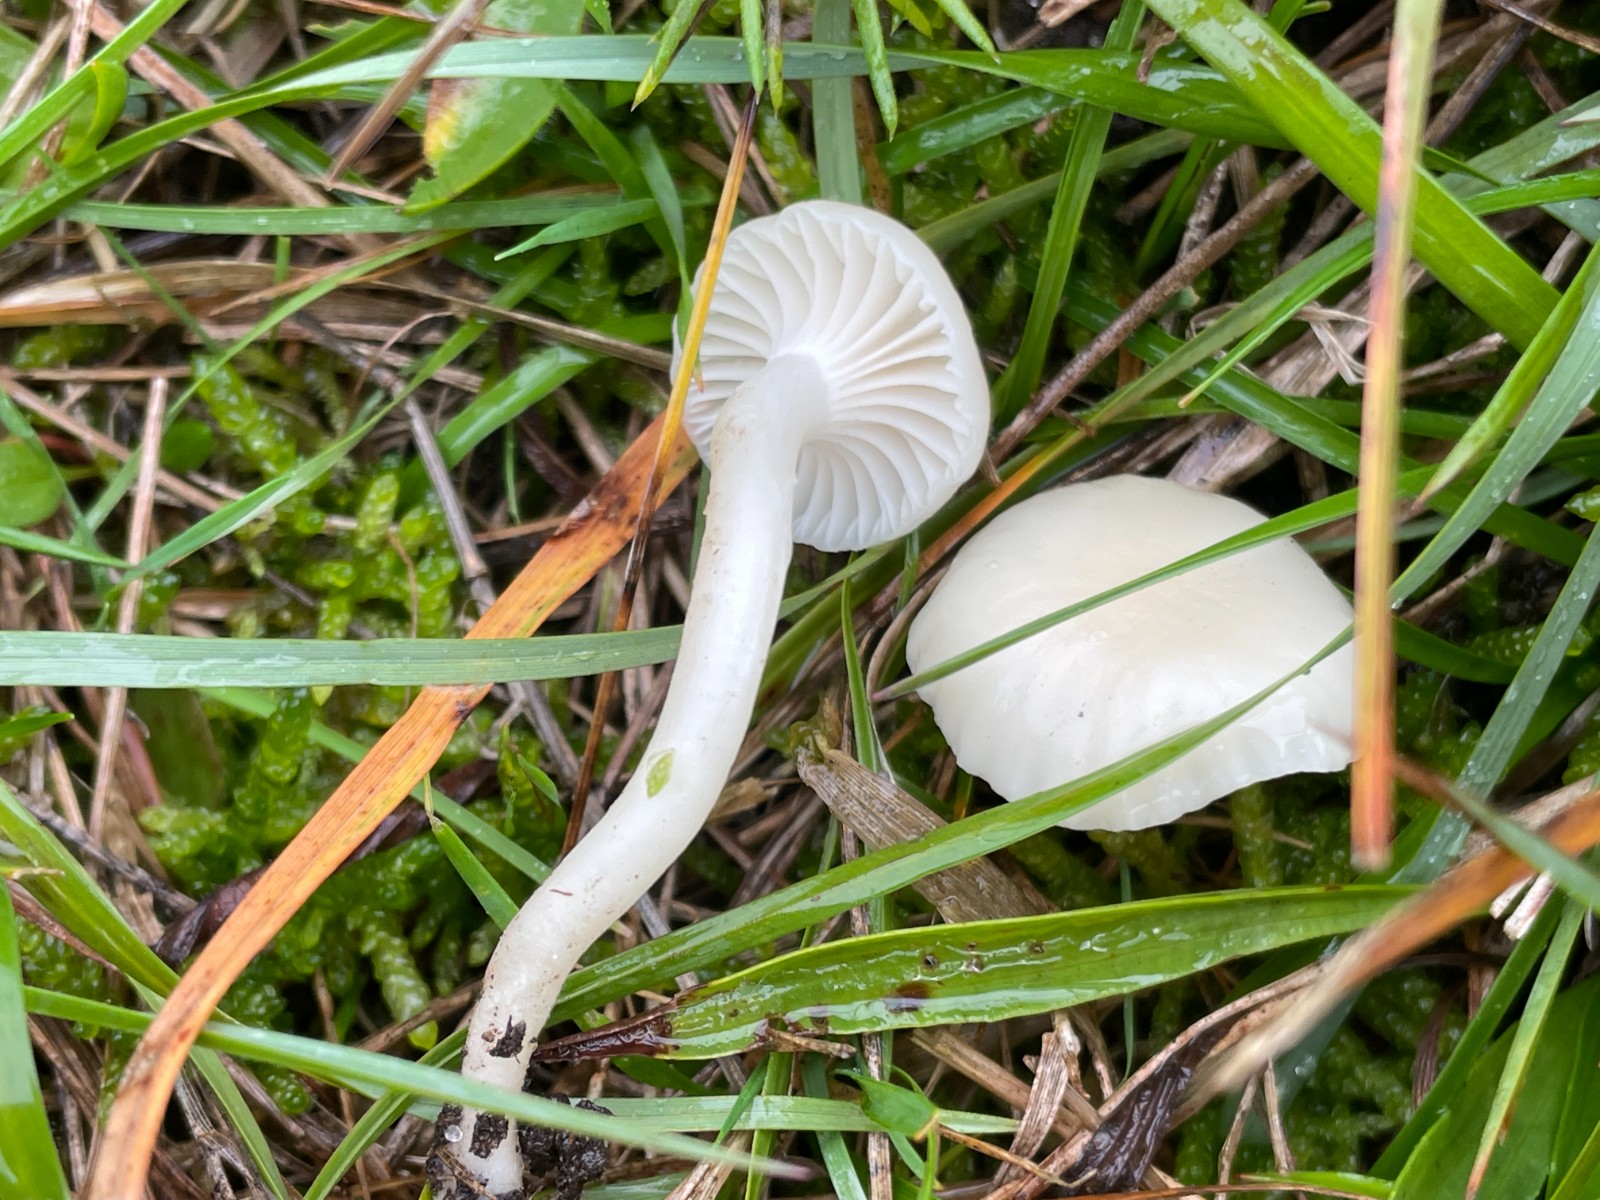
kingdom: Fungi
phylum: Basidiomycota
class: Agaricomycetes
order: Agaricales
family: Hygrophoraceae
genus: Cuphophyllus
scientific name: Cuphophyllus virgineus
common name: snehvid vokshat
